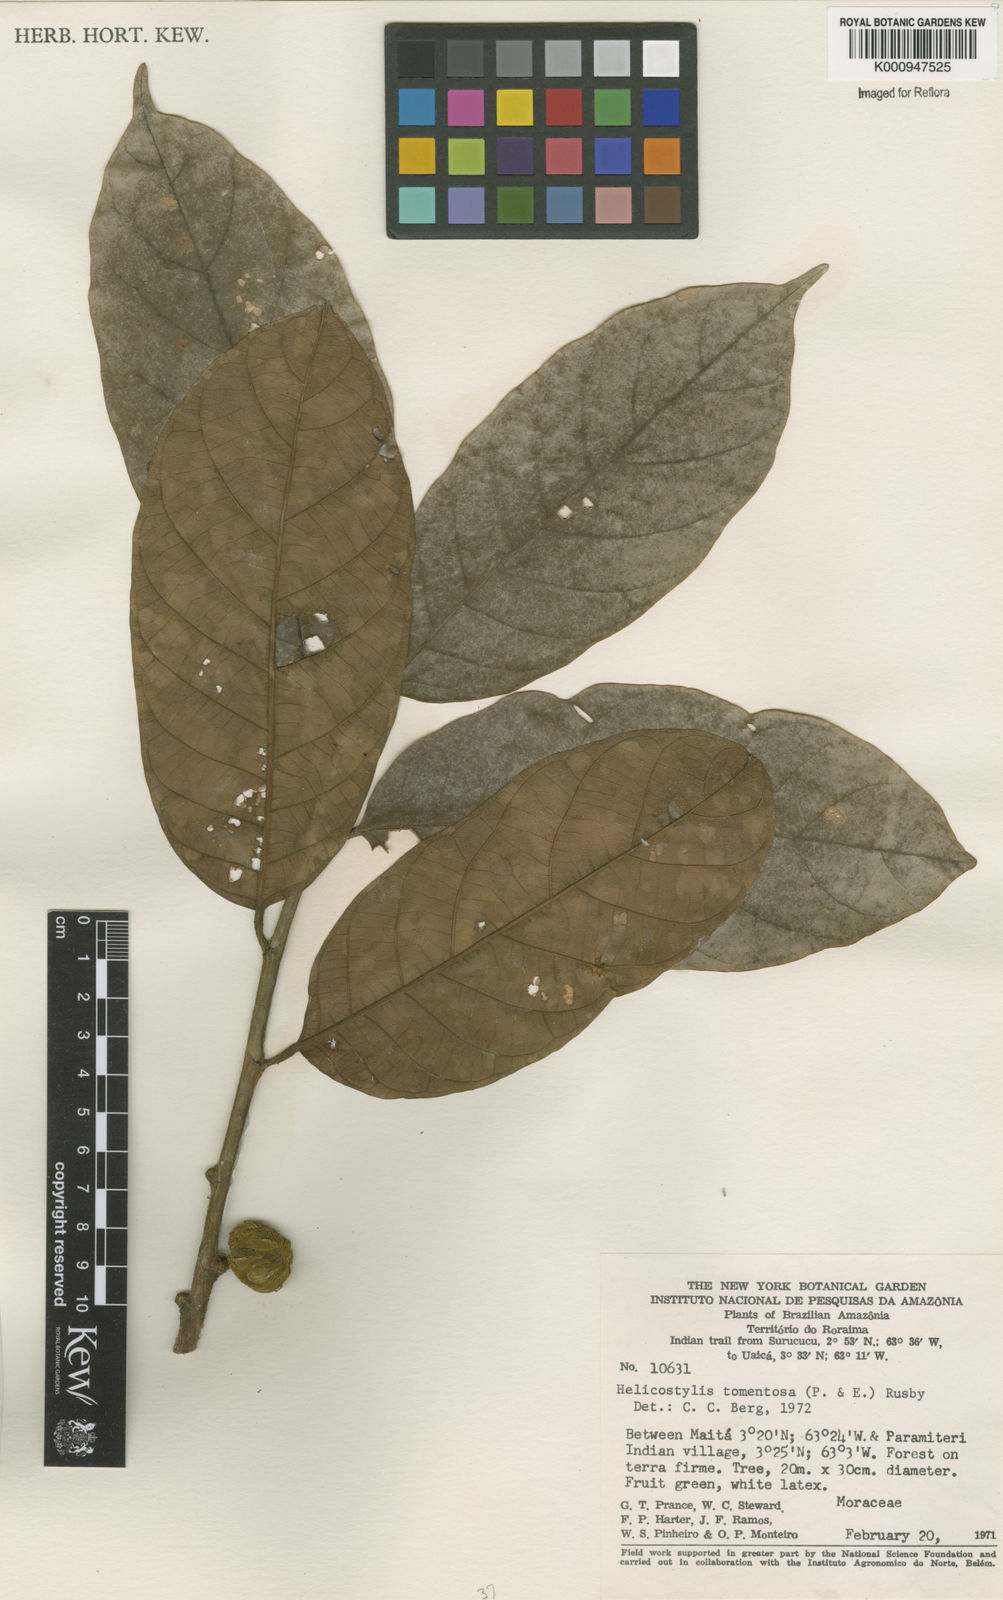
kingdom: Plantae
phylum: Tracheophyta
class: Magnoliopsida
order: Rosales
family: Moraceae
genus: Helicostylis
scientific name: Helicostylis
